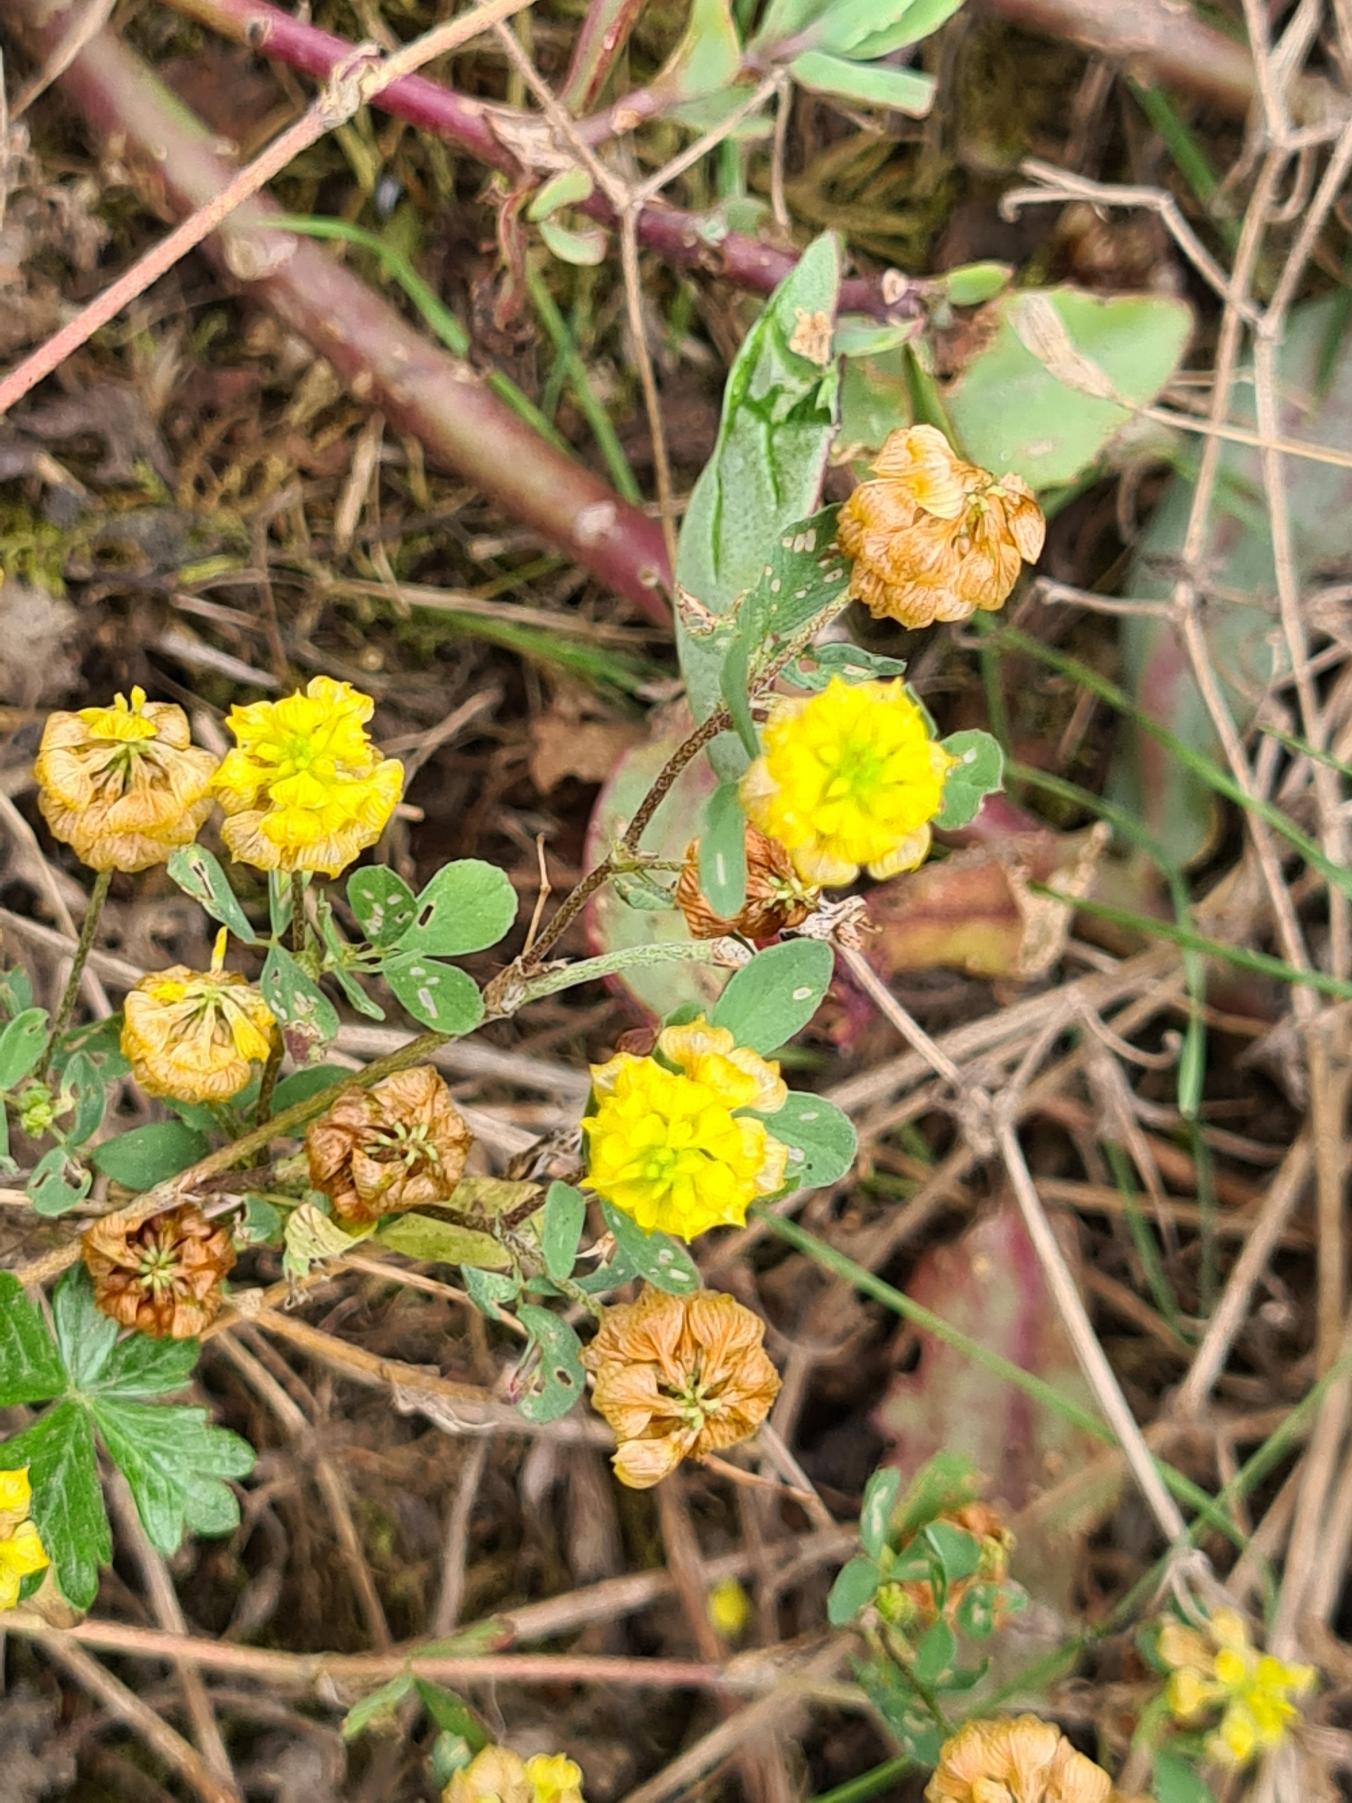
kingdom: Plantae
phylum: Tracheophyta
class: Magnoliopsida
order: Fabales
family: Fabaceae
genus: Trifolium
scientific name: Trifolium campestre
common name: Gul kløver
